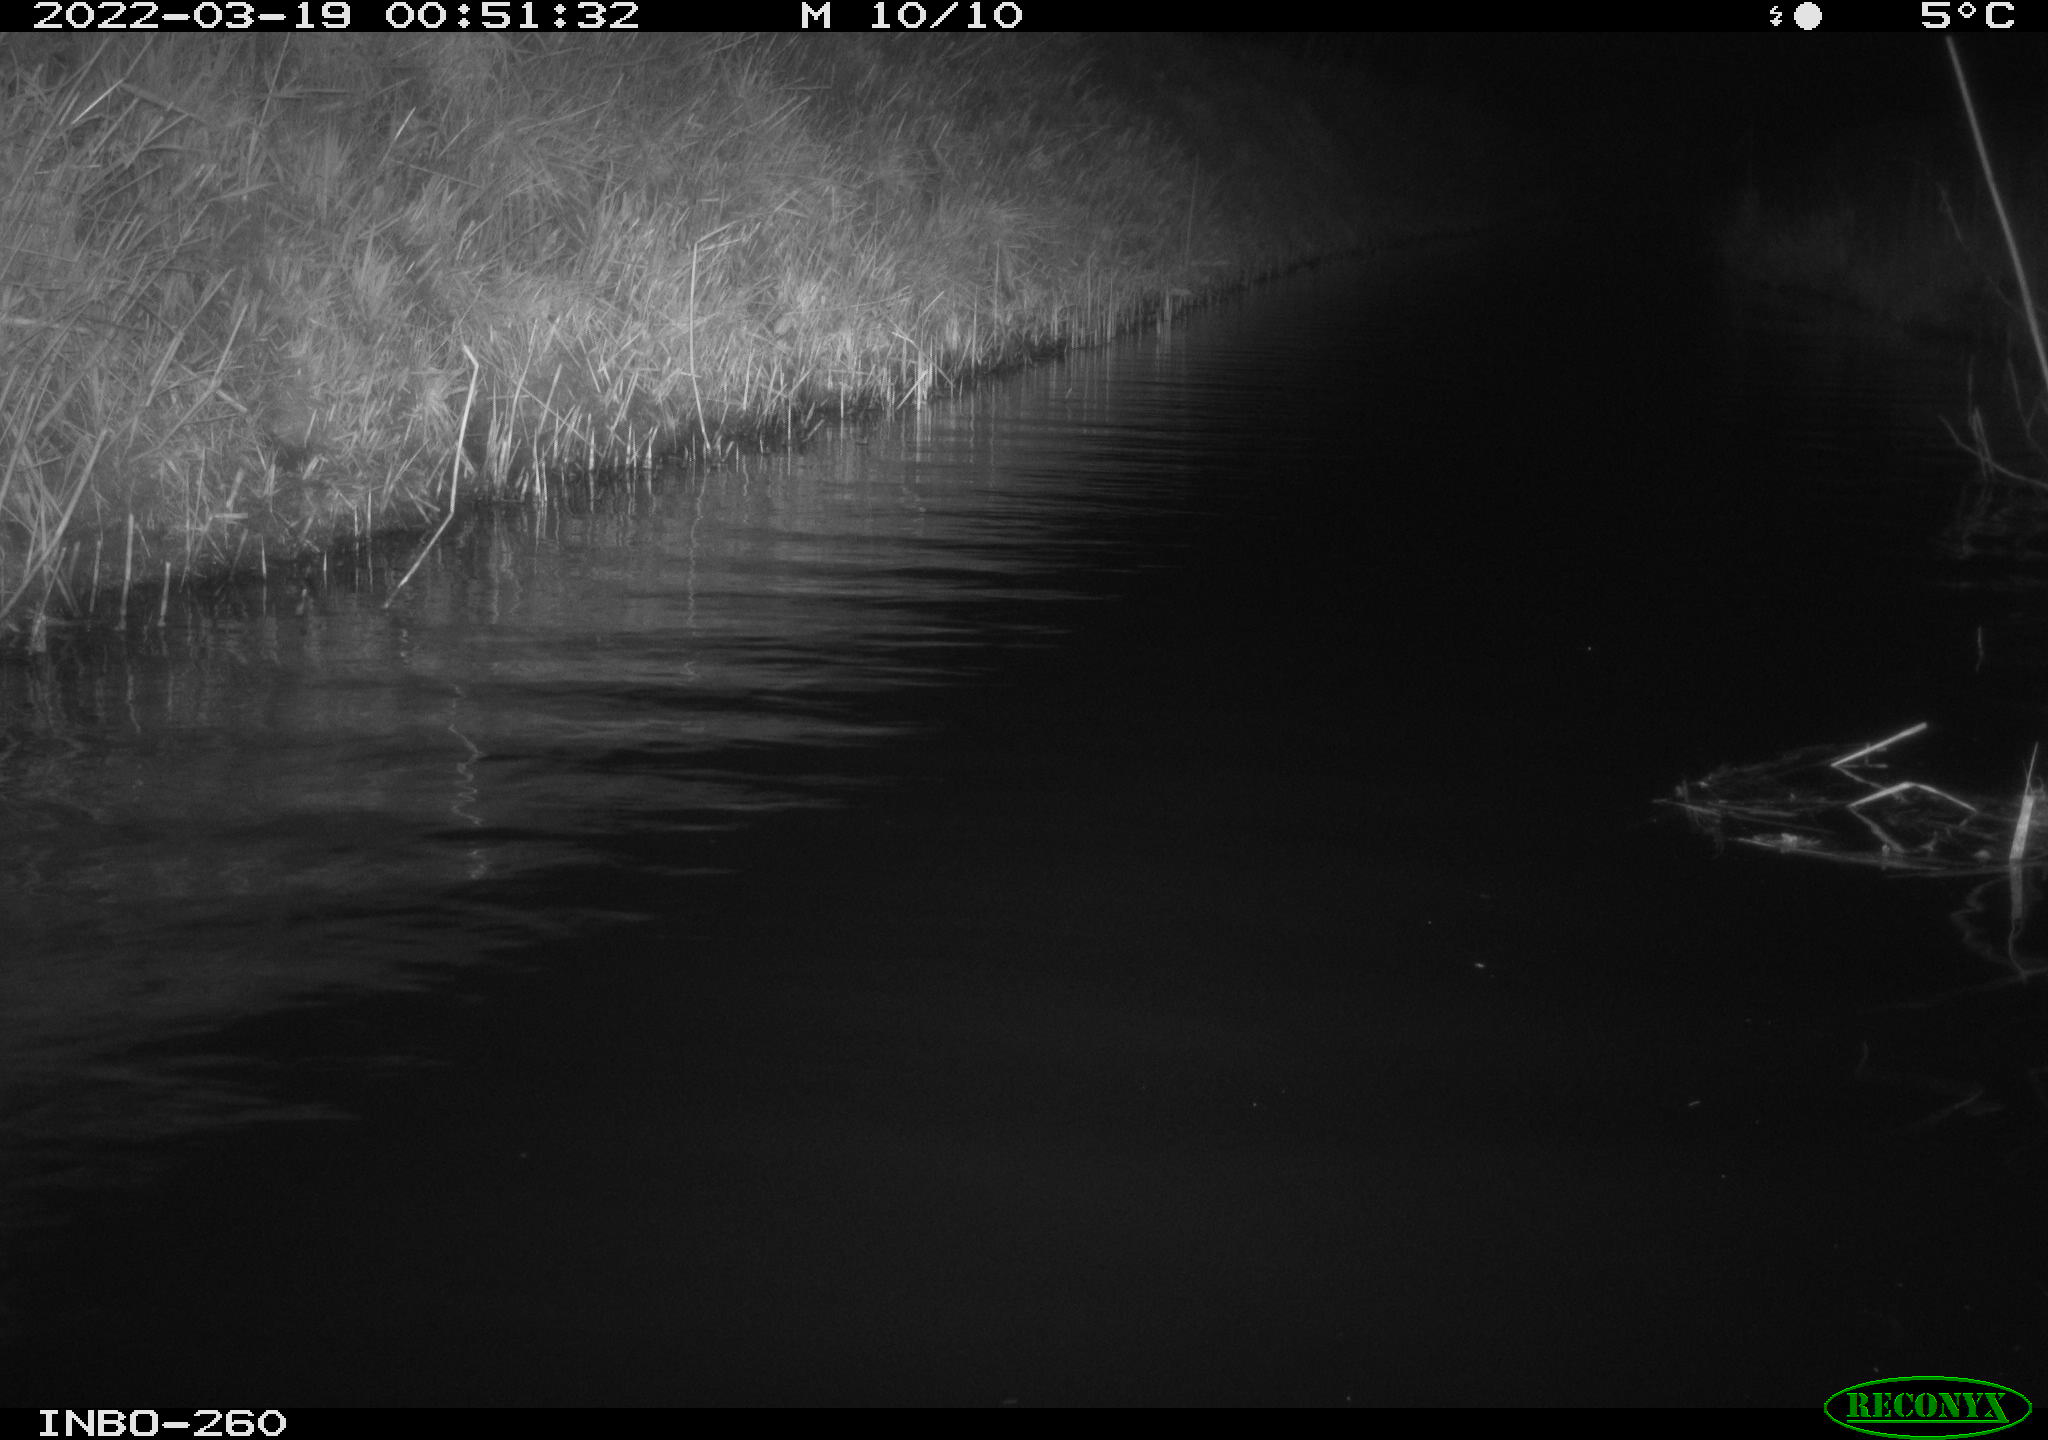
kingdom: Animalia
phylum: Chordata
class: Mammalia
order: Rodentia
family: Cricetidae
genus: Ondatra
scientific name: Ondatra zibethicus
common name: Muskrat
